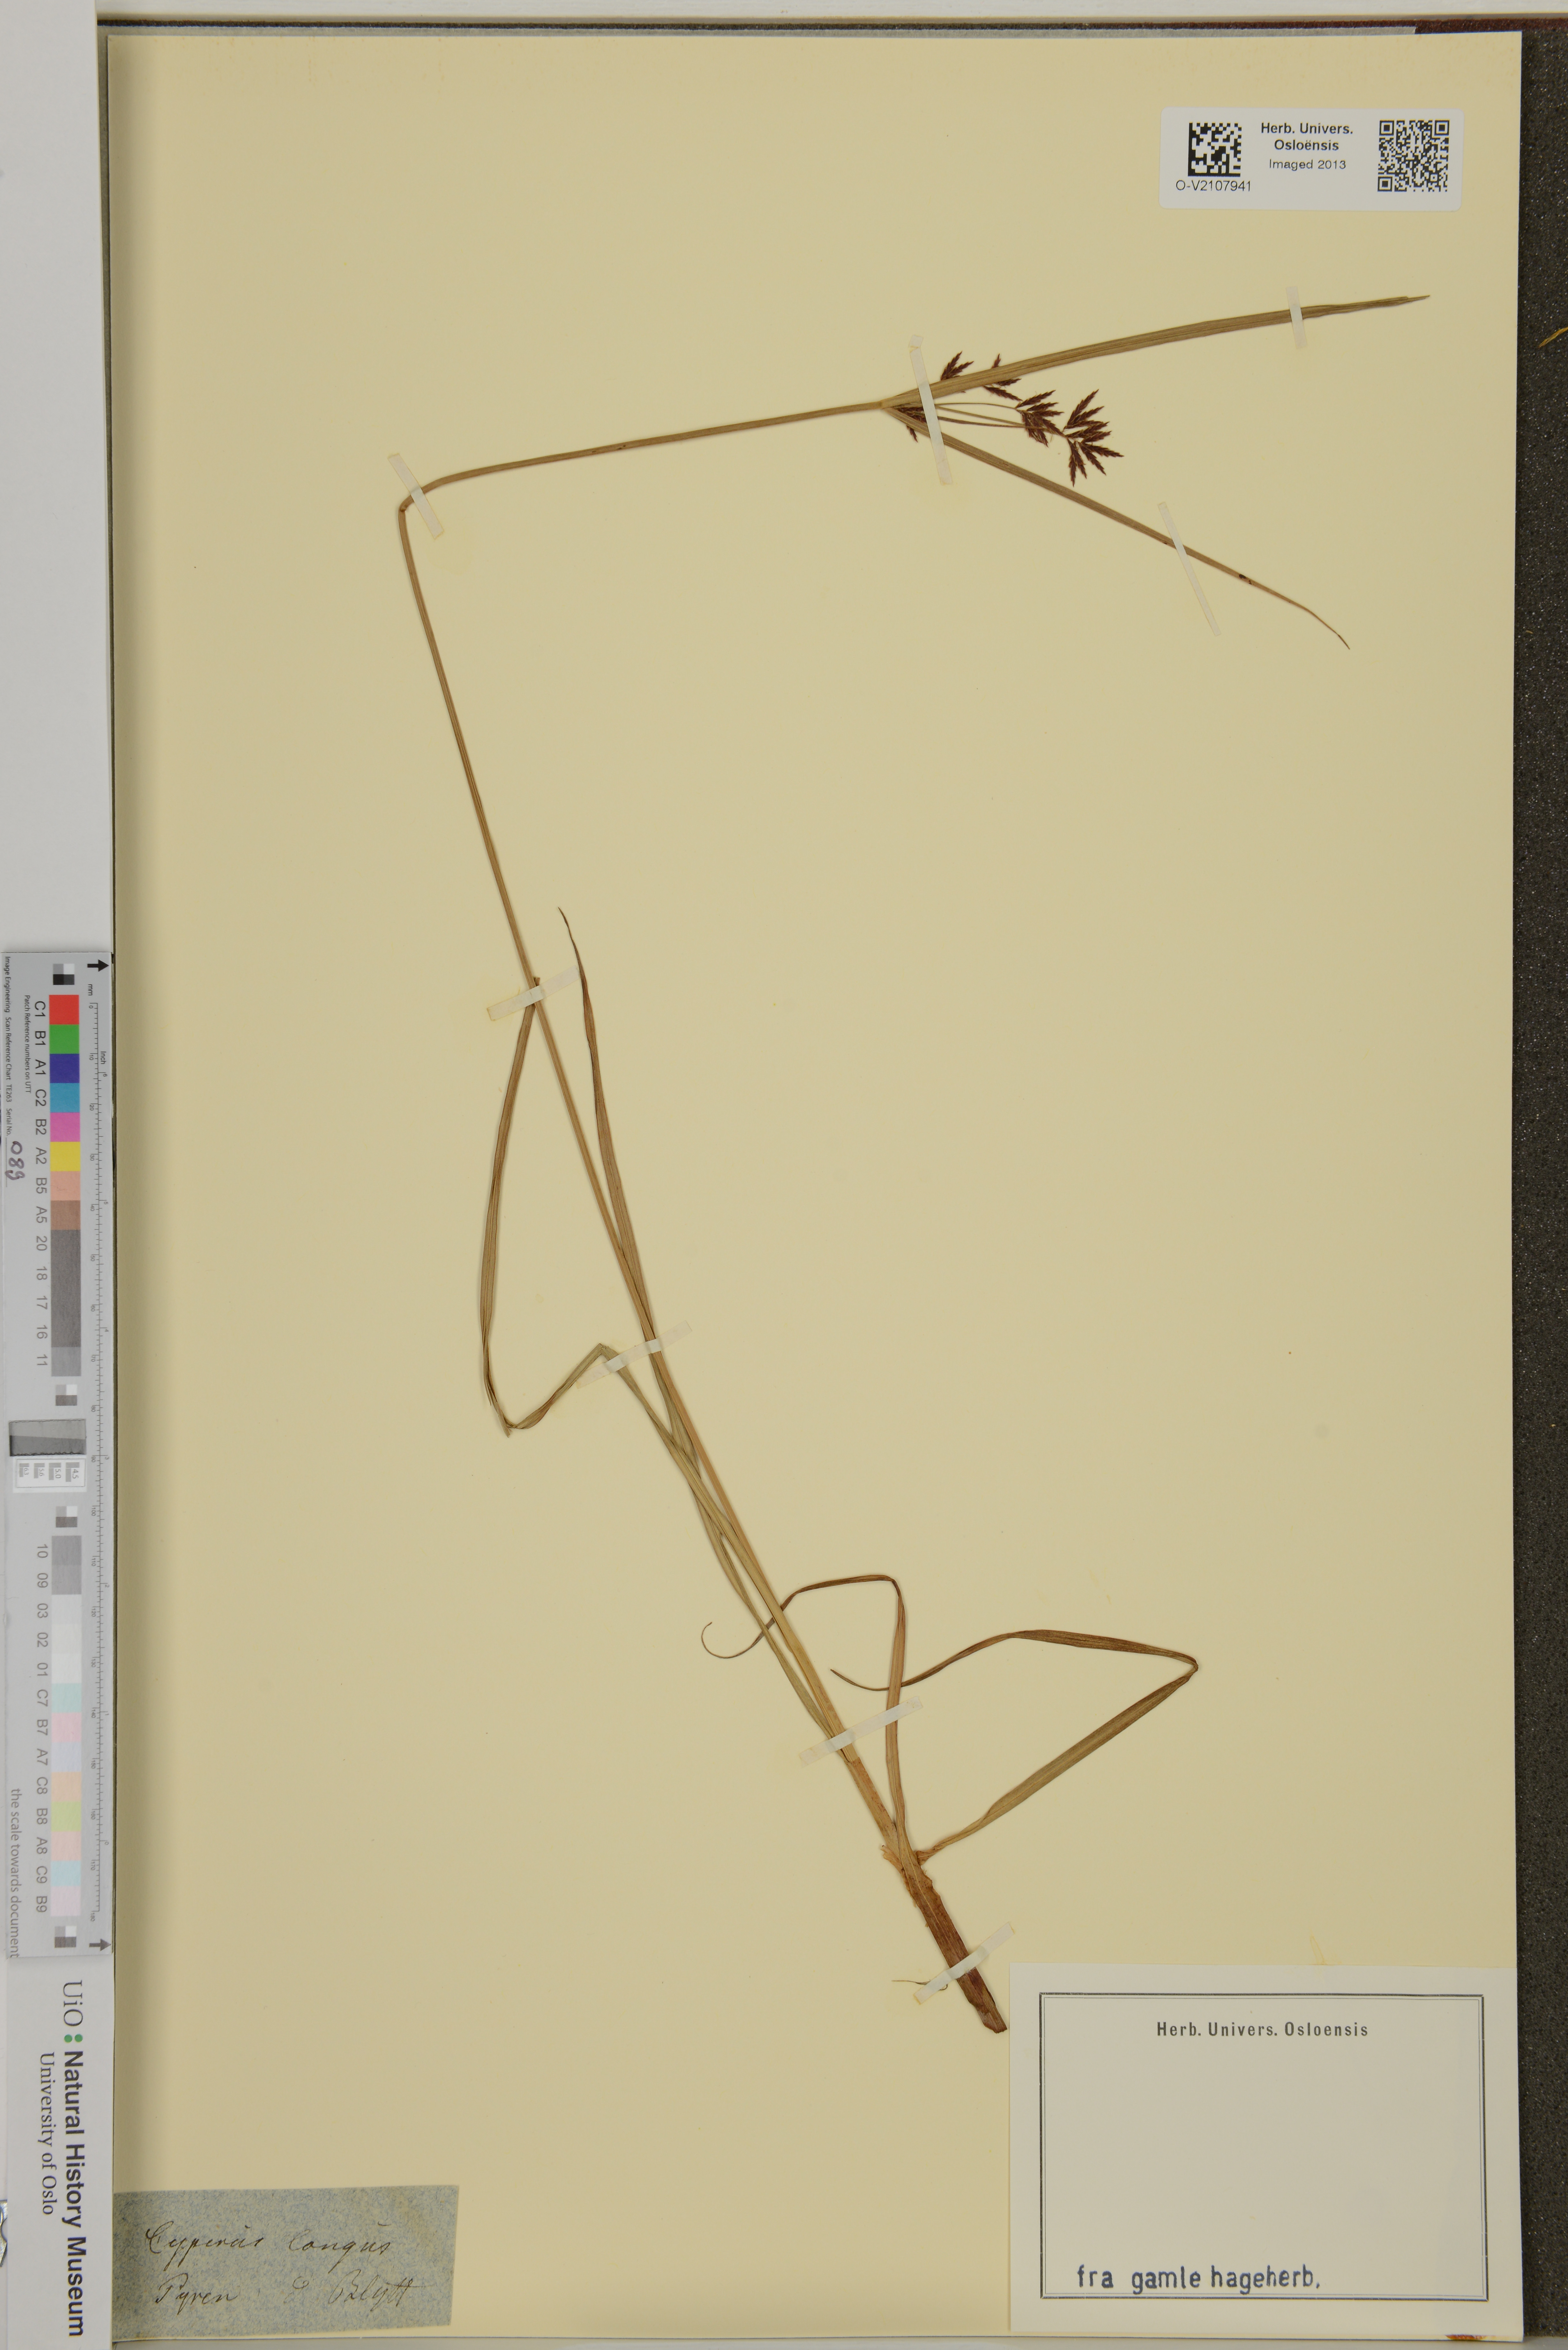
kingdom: Plantae
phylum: Tracheophyta
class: Liliopsida
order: Poales
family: Cyperaceae
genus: Cyperus
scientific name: Cyperus longus
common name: Galingale
